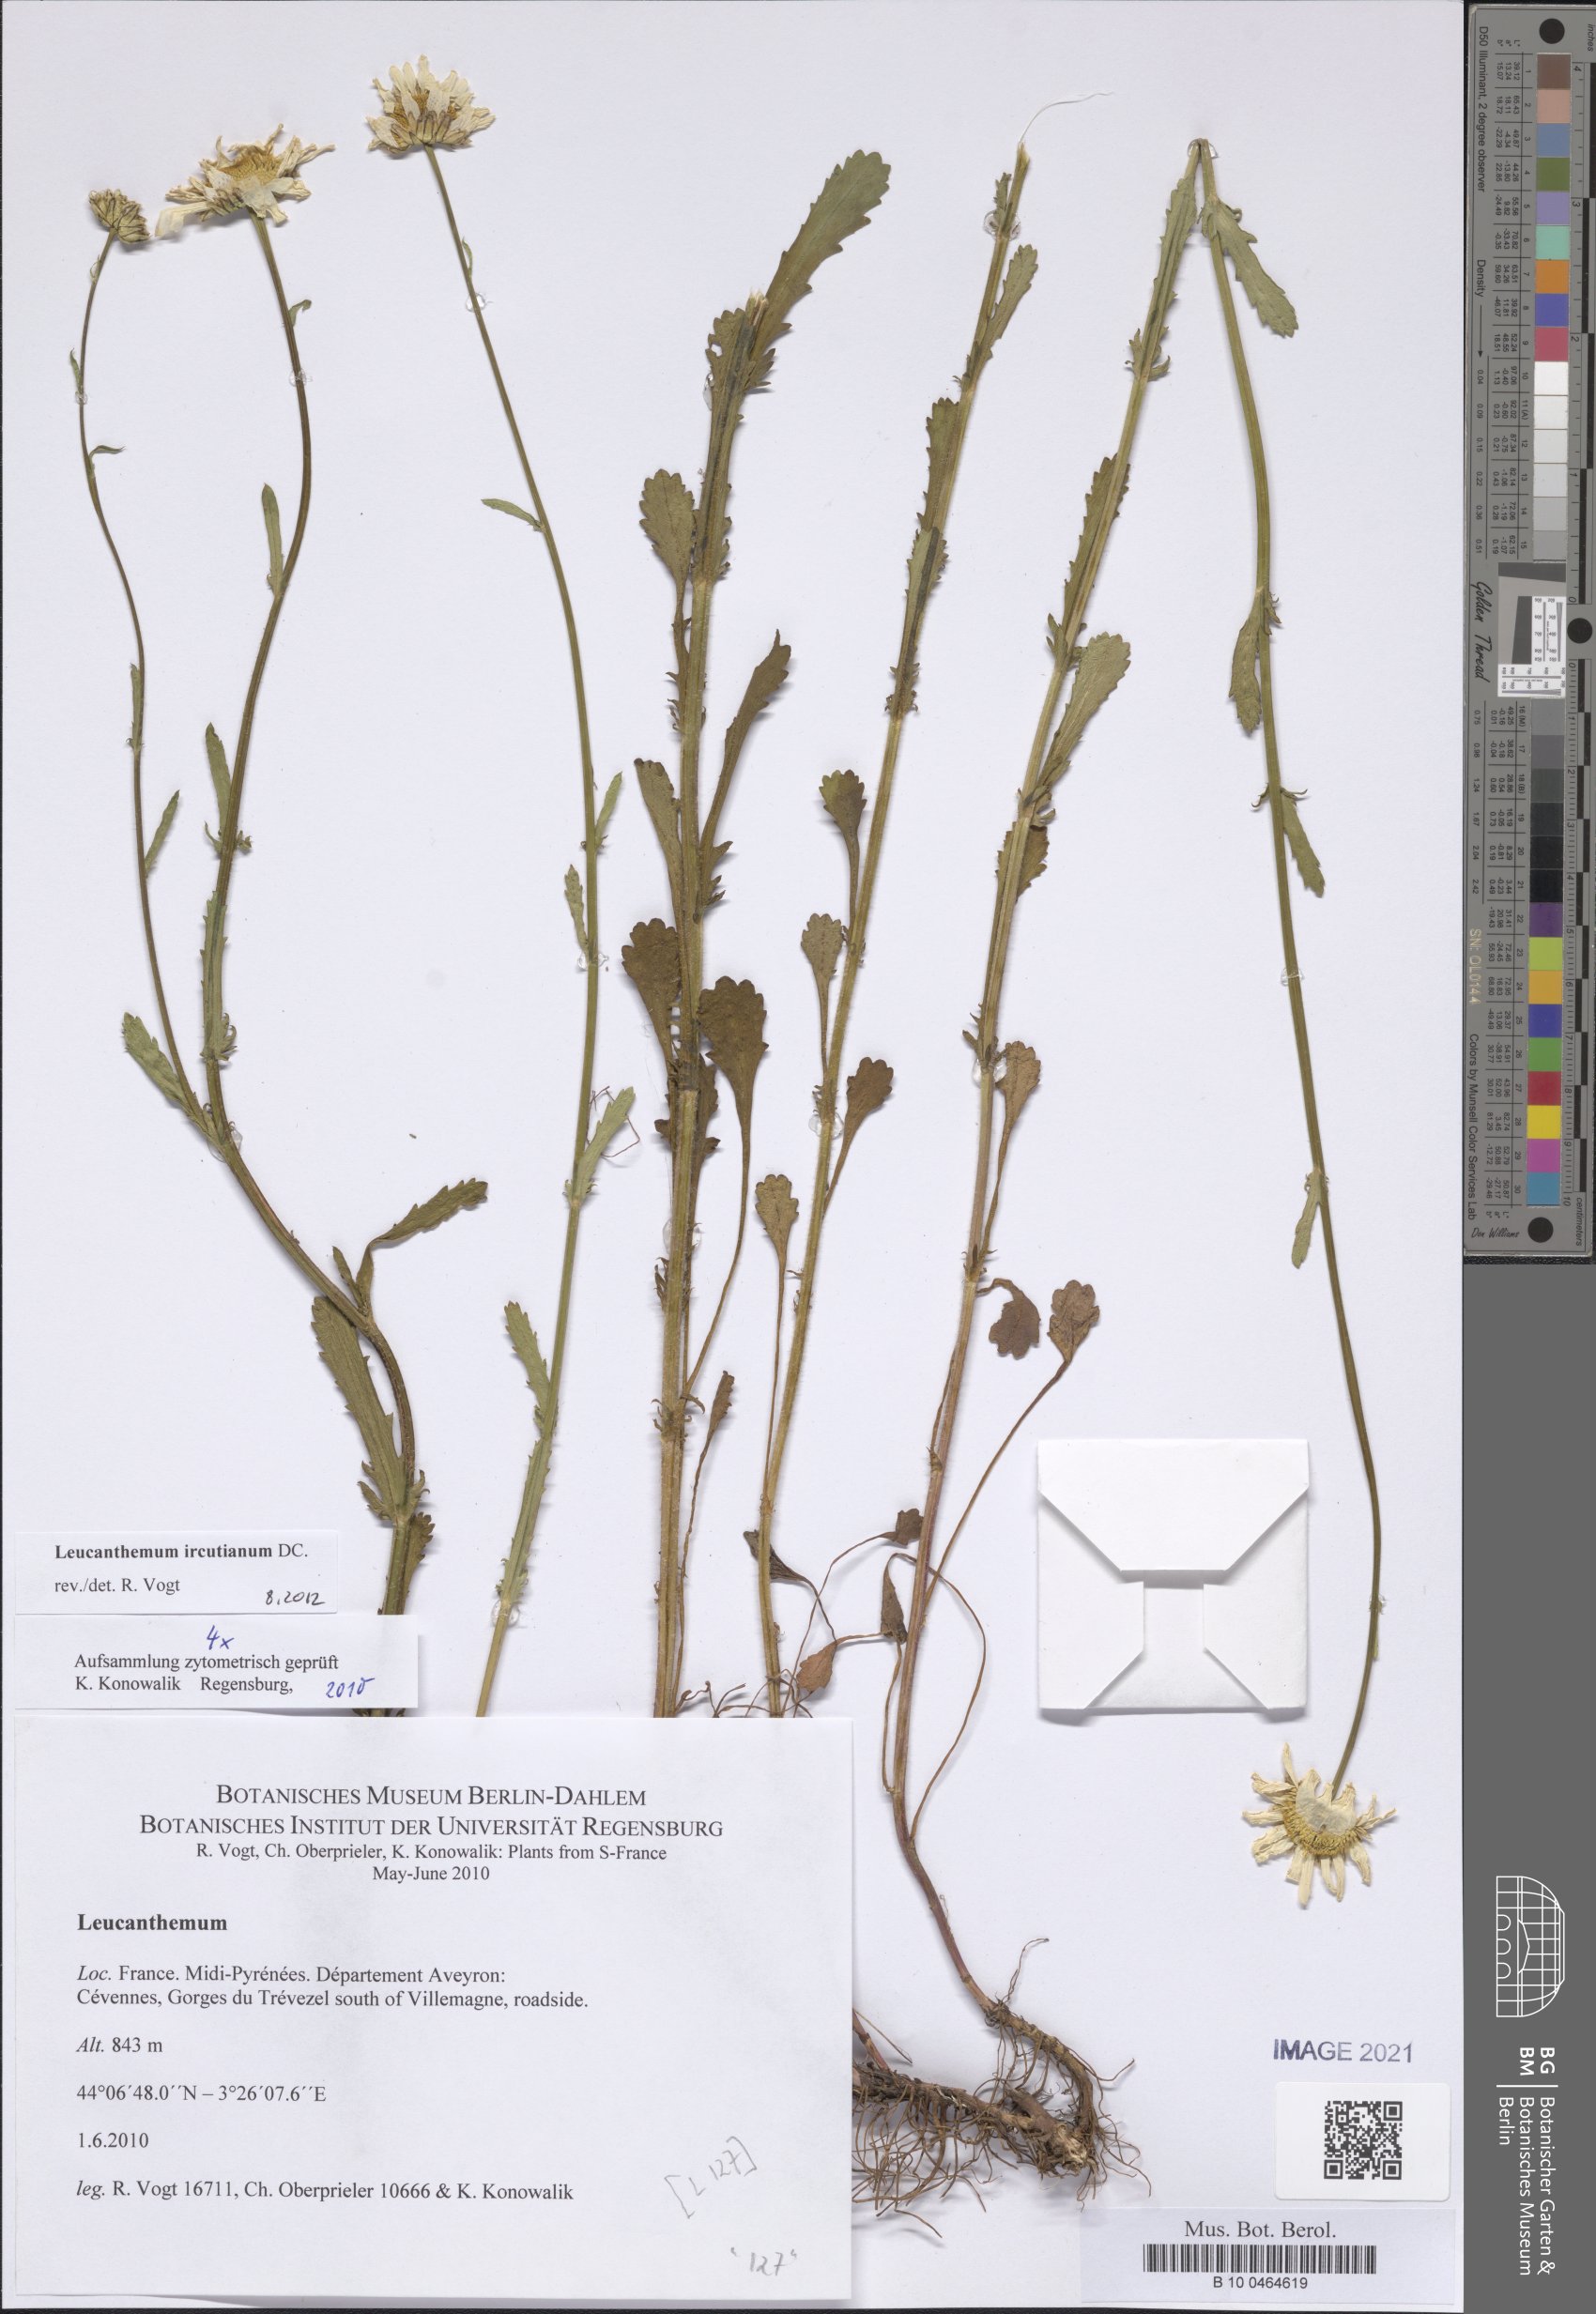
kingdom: Plantae
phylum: Tracheophyta
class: Magnoliopsida
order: Asterales
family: Asteraceae
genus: Leucanthemum
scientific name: Leucanthemum ircutianum
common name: Daisy
